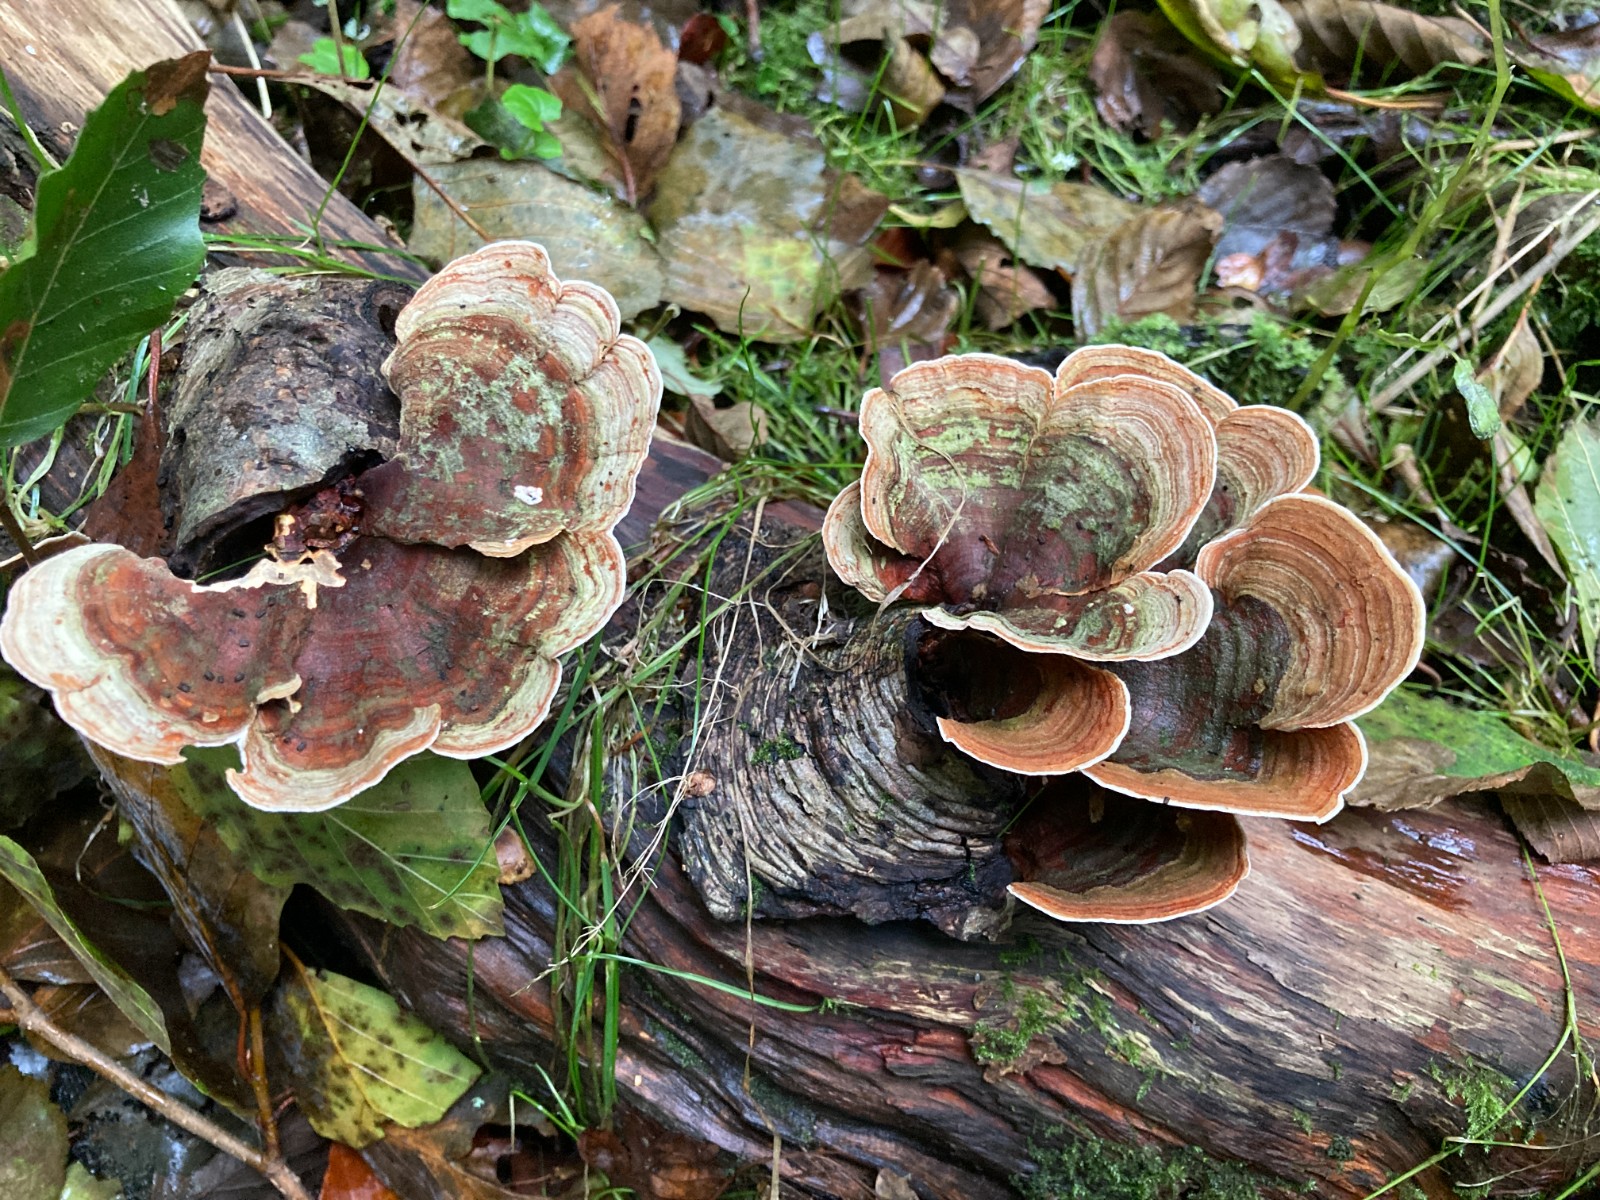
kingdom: Fungi
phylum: Basidiomycota
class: Agaricomycetes
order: Russulales
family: Stereaceae
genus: Stereum
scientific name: Stereum subtomentosum
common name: smuk lædersvamp
